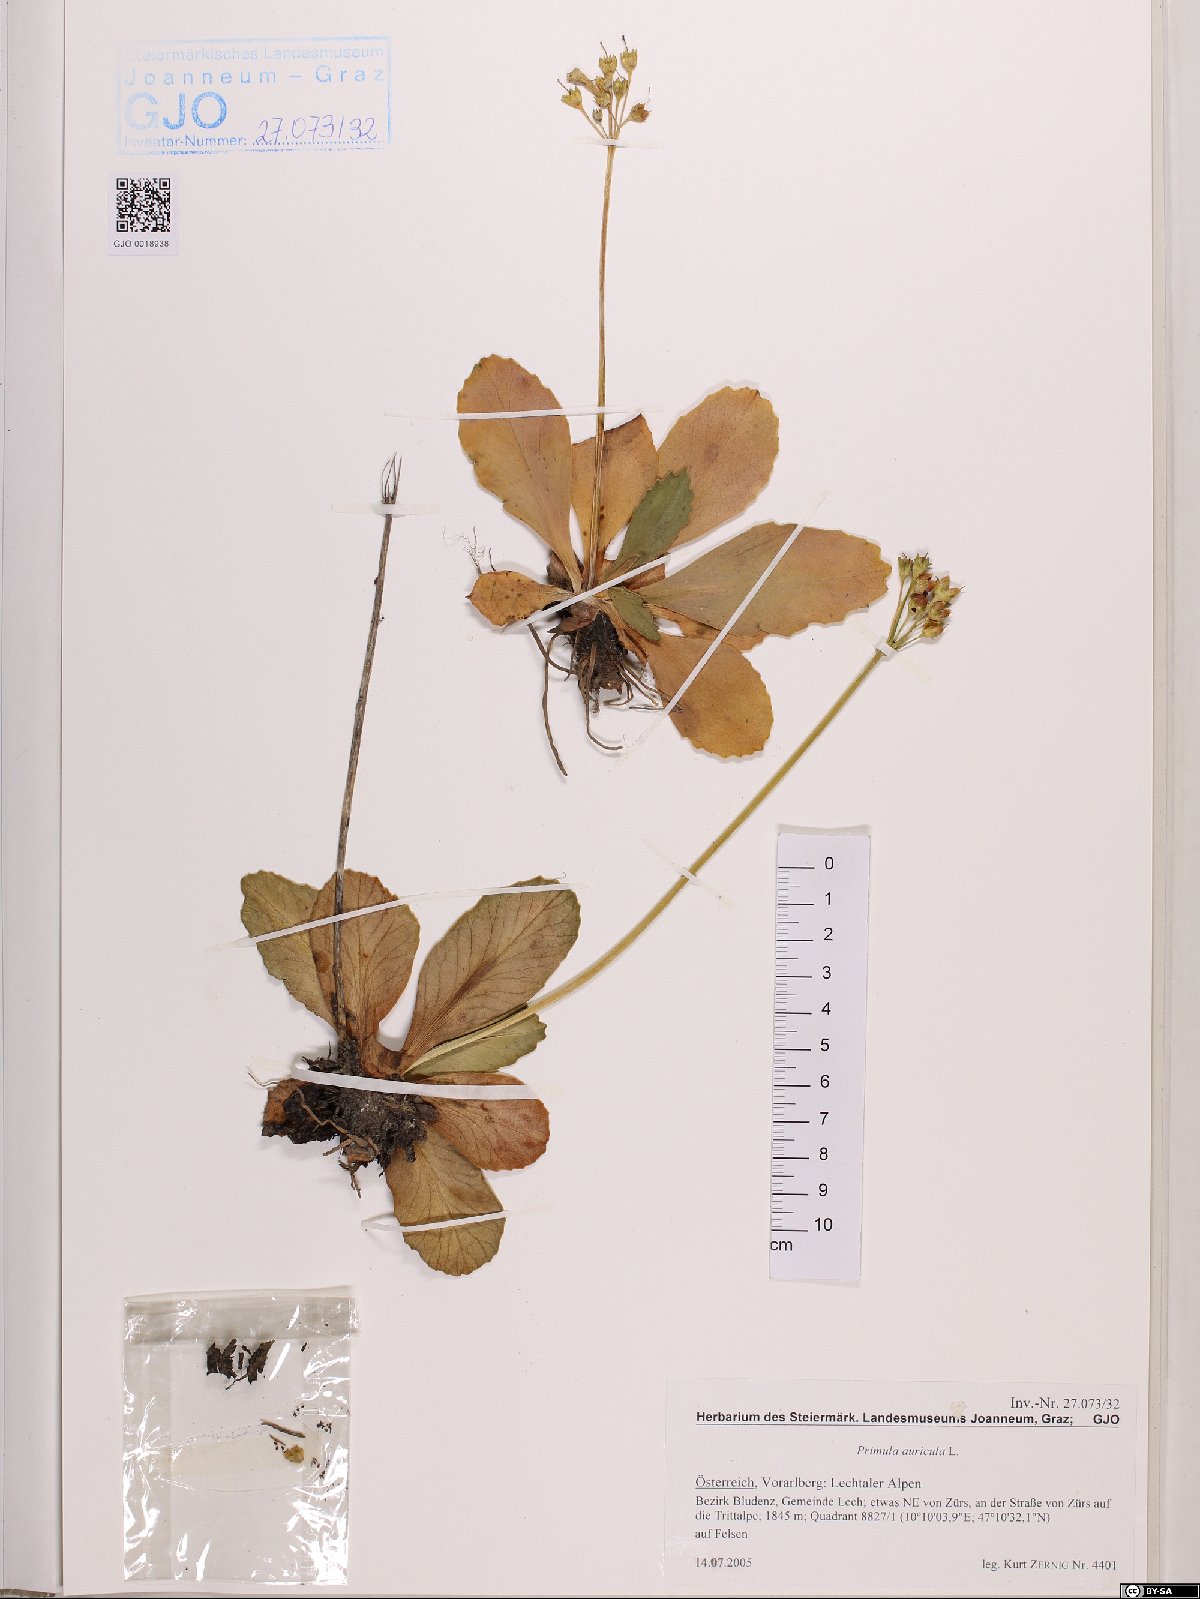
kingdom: Plantae
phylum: Tracheophyta
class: Magnoliopsida
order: Ericales
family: Primulaceae
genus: Primula
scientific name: Primula auricula
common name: Auricula
